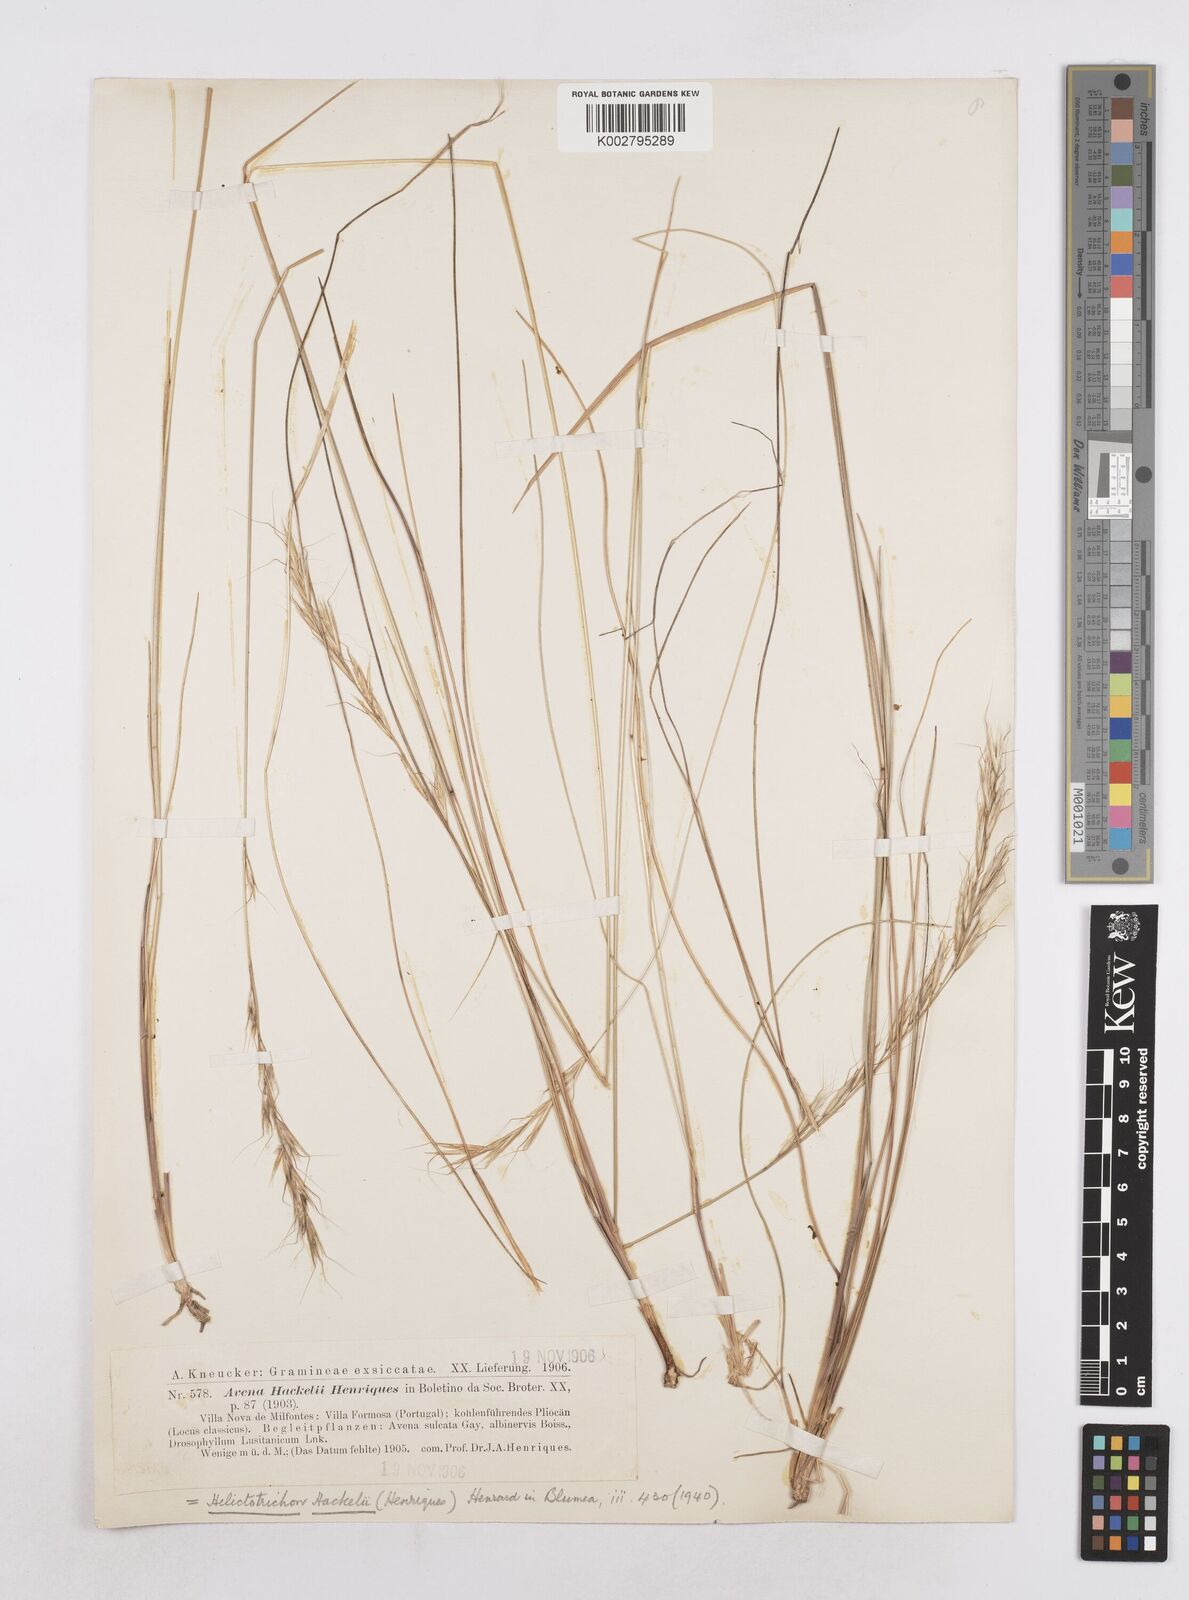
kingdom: Plantae
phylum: Tracheophyta
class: Liliopsida
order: Poales
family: Poaceae
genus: Helictochloa
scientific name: Helictochloa hackelii
